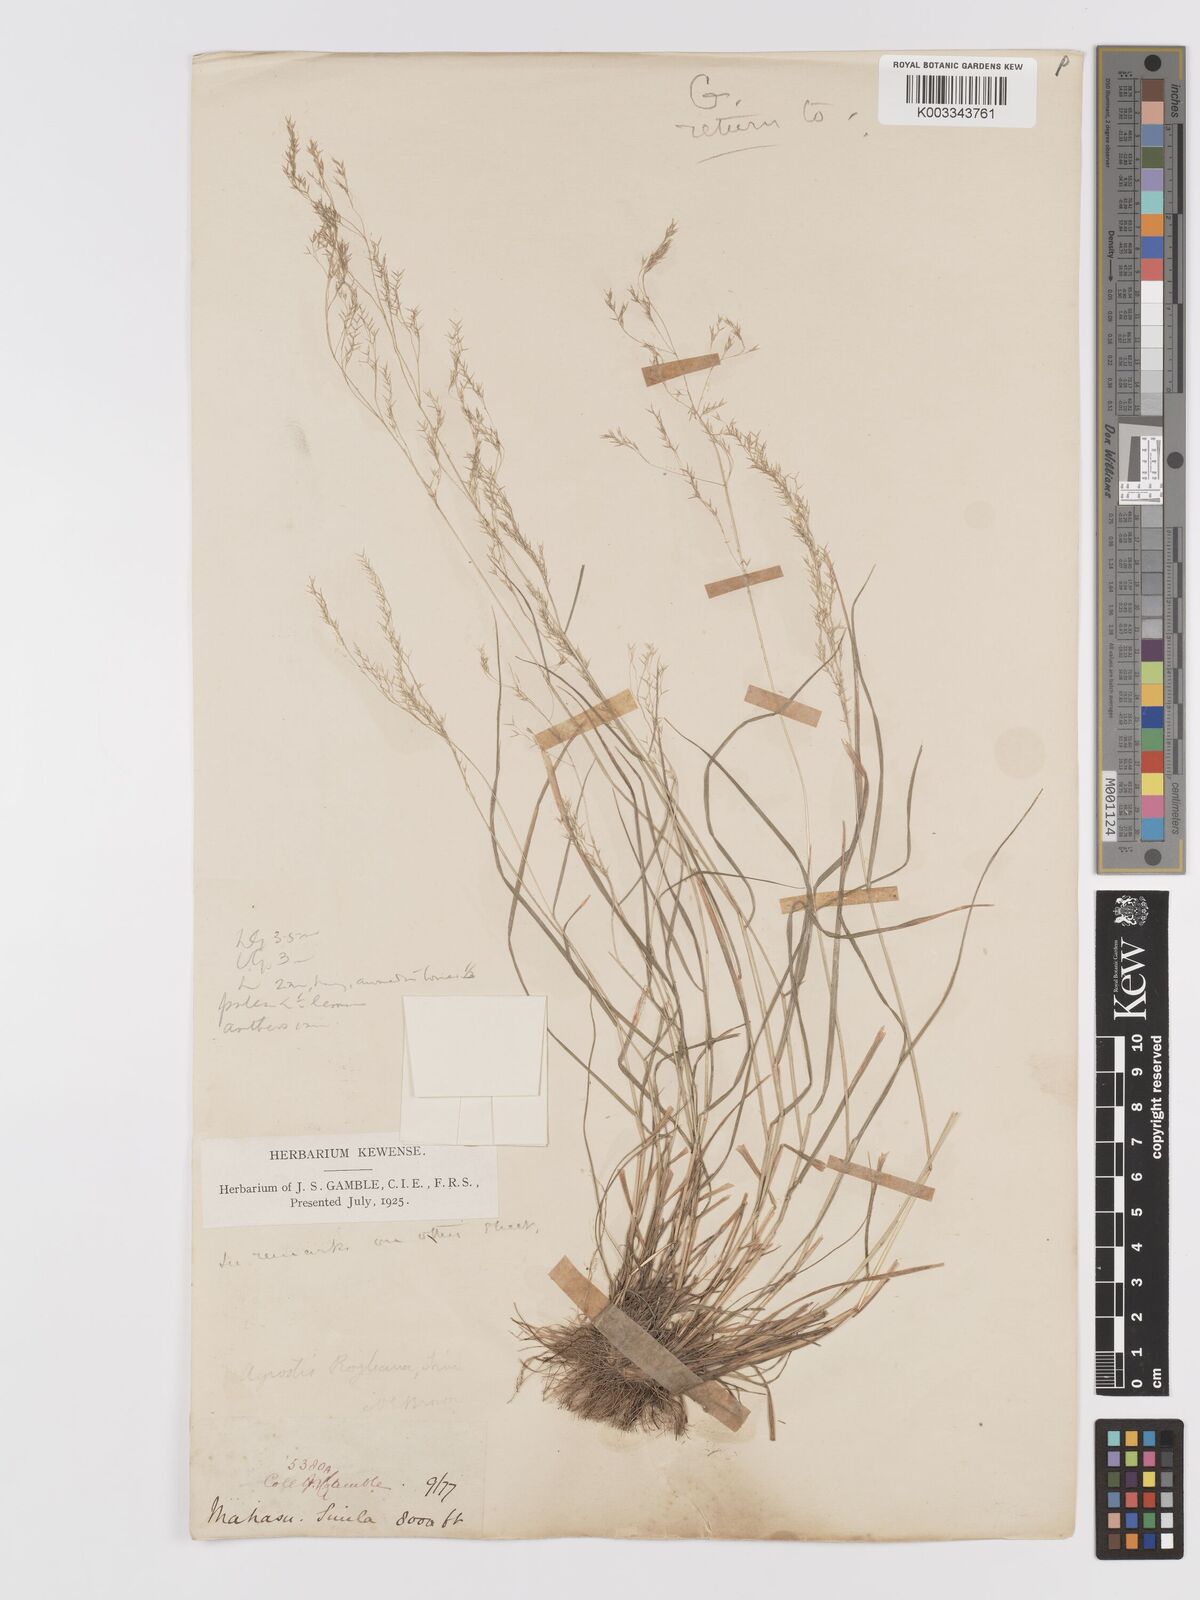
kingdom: Plantae
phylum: Tracheophyta
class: Liliopsida
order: Poales
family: Poaceae
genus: Agrostis
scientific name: Agrostis pilosula
